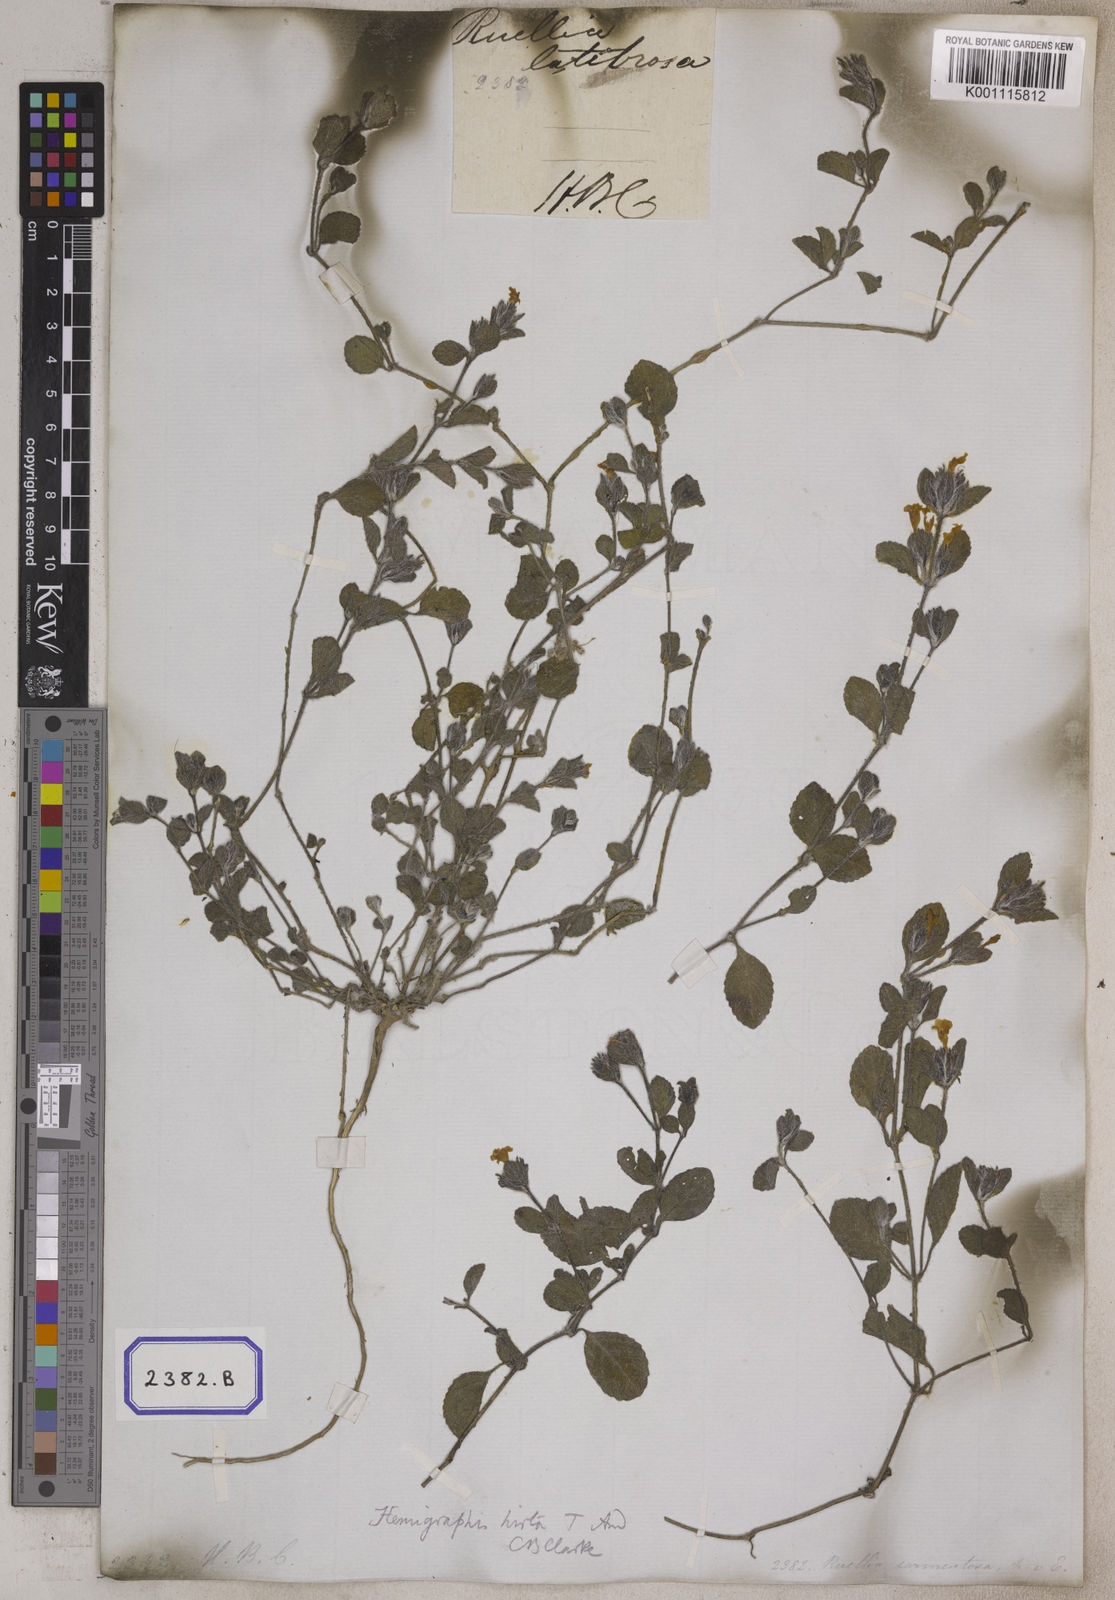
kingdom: Plantae
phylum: Tracheophyta
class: Magnoliopsida
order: Lamiales
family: Acanthaceae
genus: Strobilanthes
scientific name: Strobilanthes hirta
